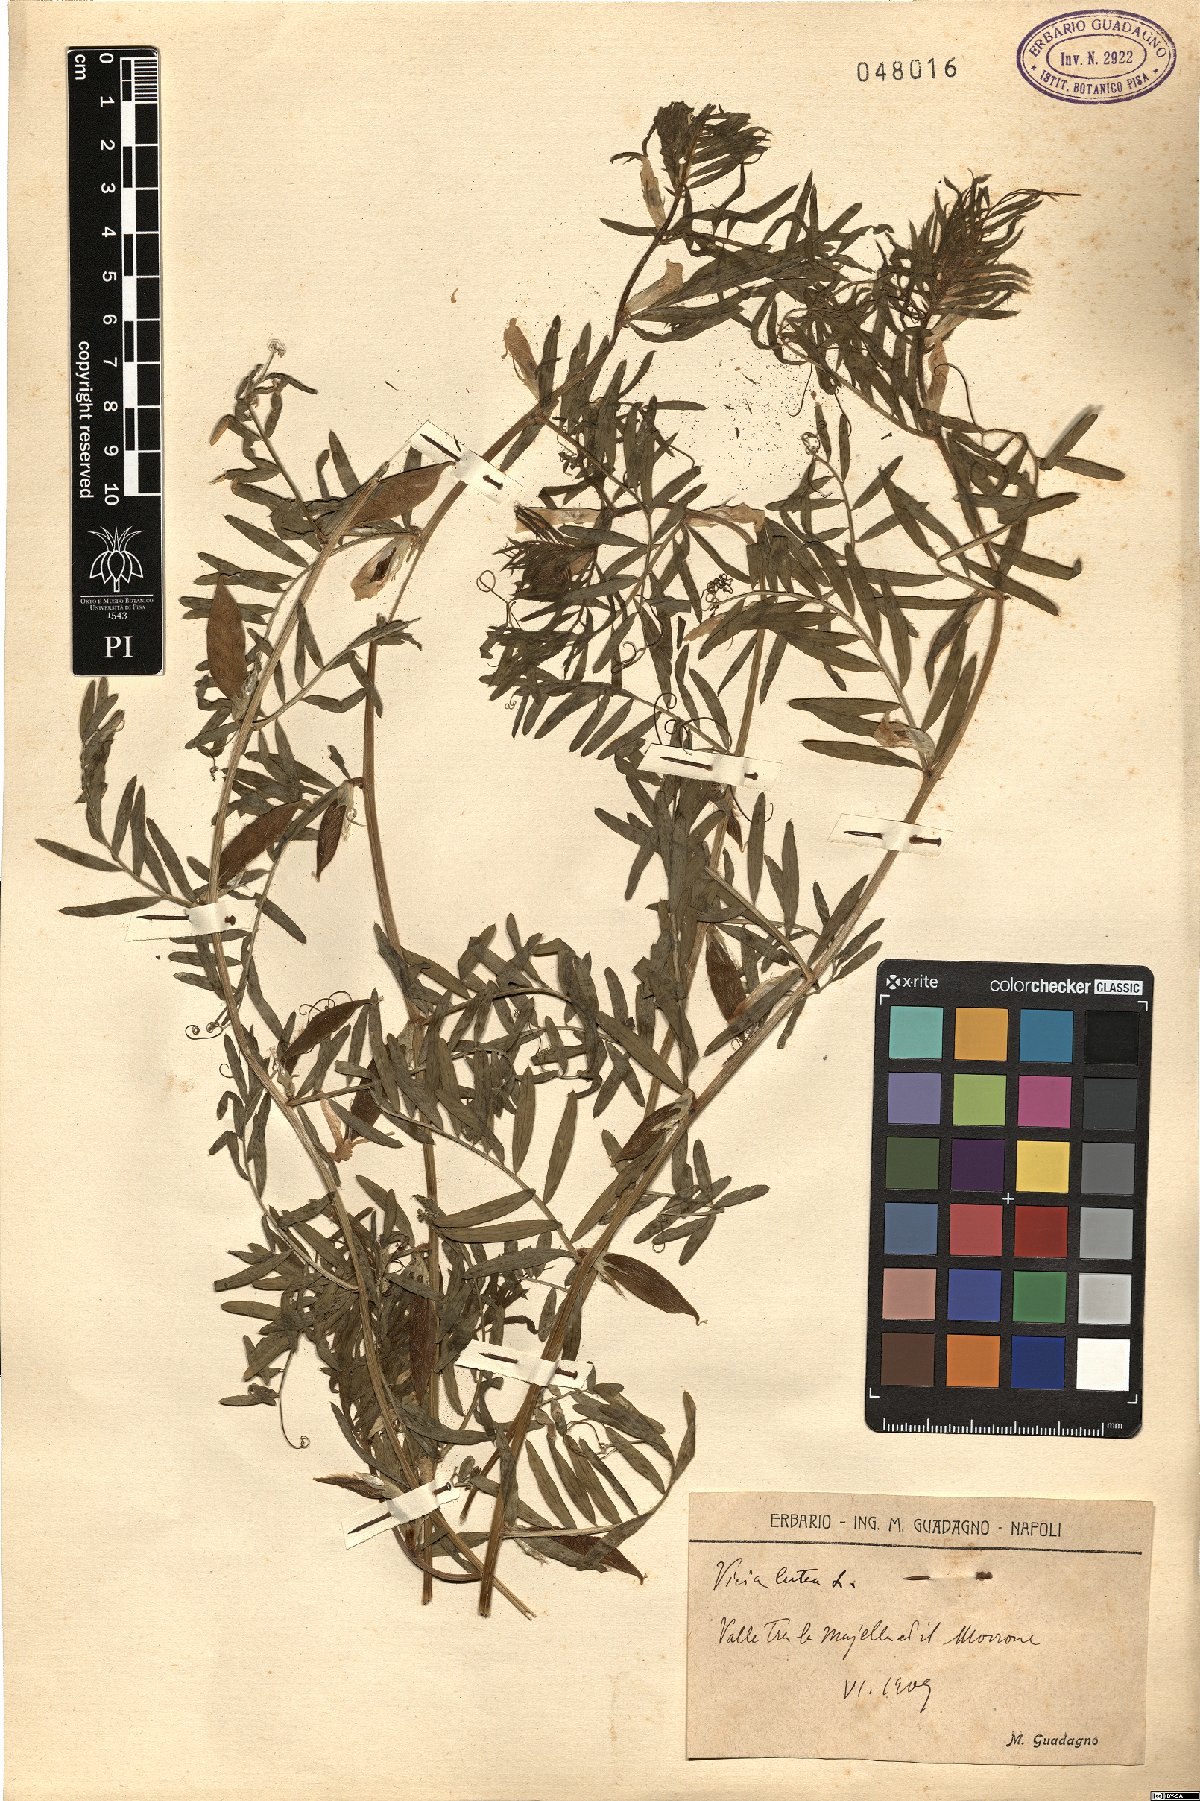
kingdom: Plantae
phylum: Tracheophyta
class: Magnoliopsida
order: Fabales
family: Fabaceae
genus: Vicia
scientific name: Vicia lutea
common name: Smooth yellow vetch
